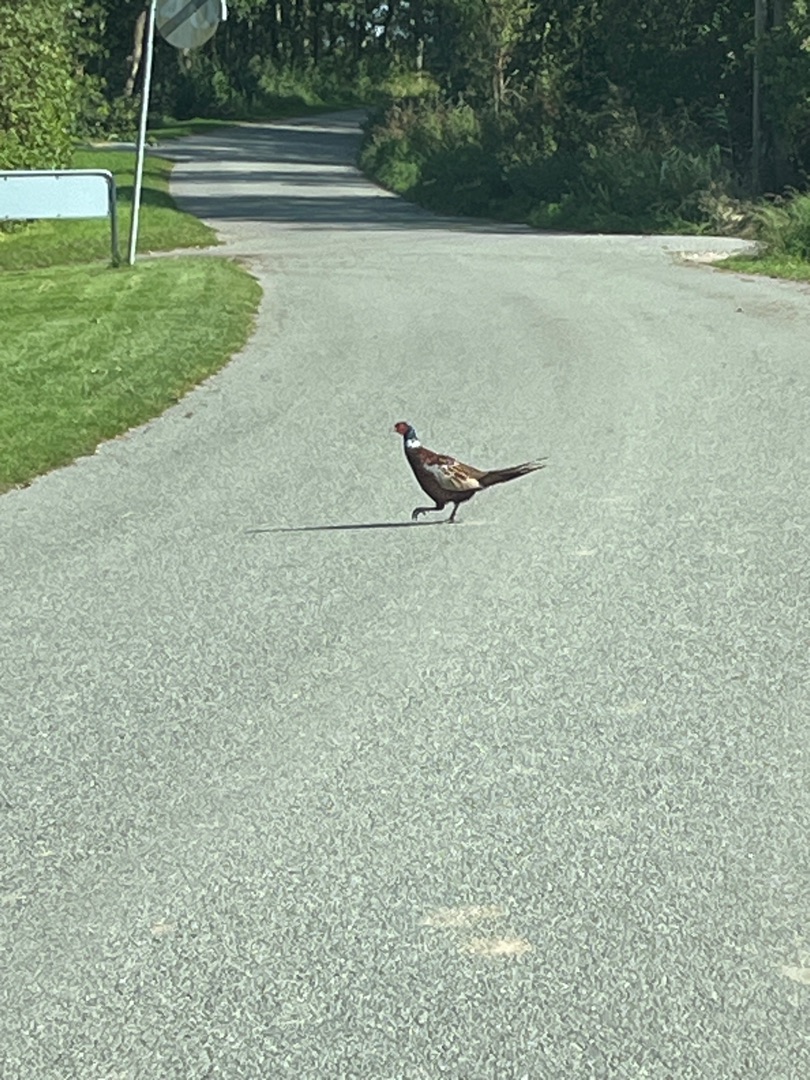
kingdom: Animalia
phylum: Chordata
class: Aves
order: Galliformes
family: Phasianidae
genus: Phasianus
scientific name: Phasianus colchicus
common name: Fasan
